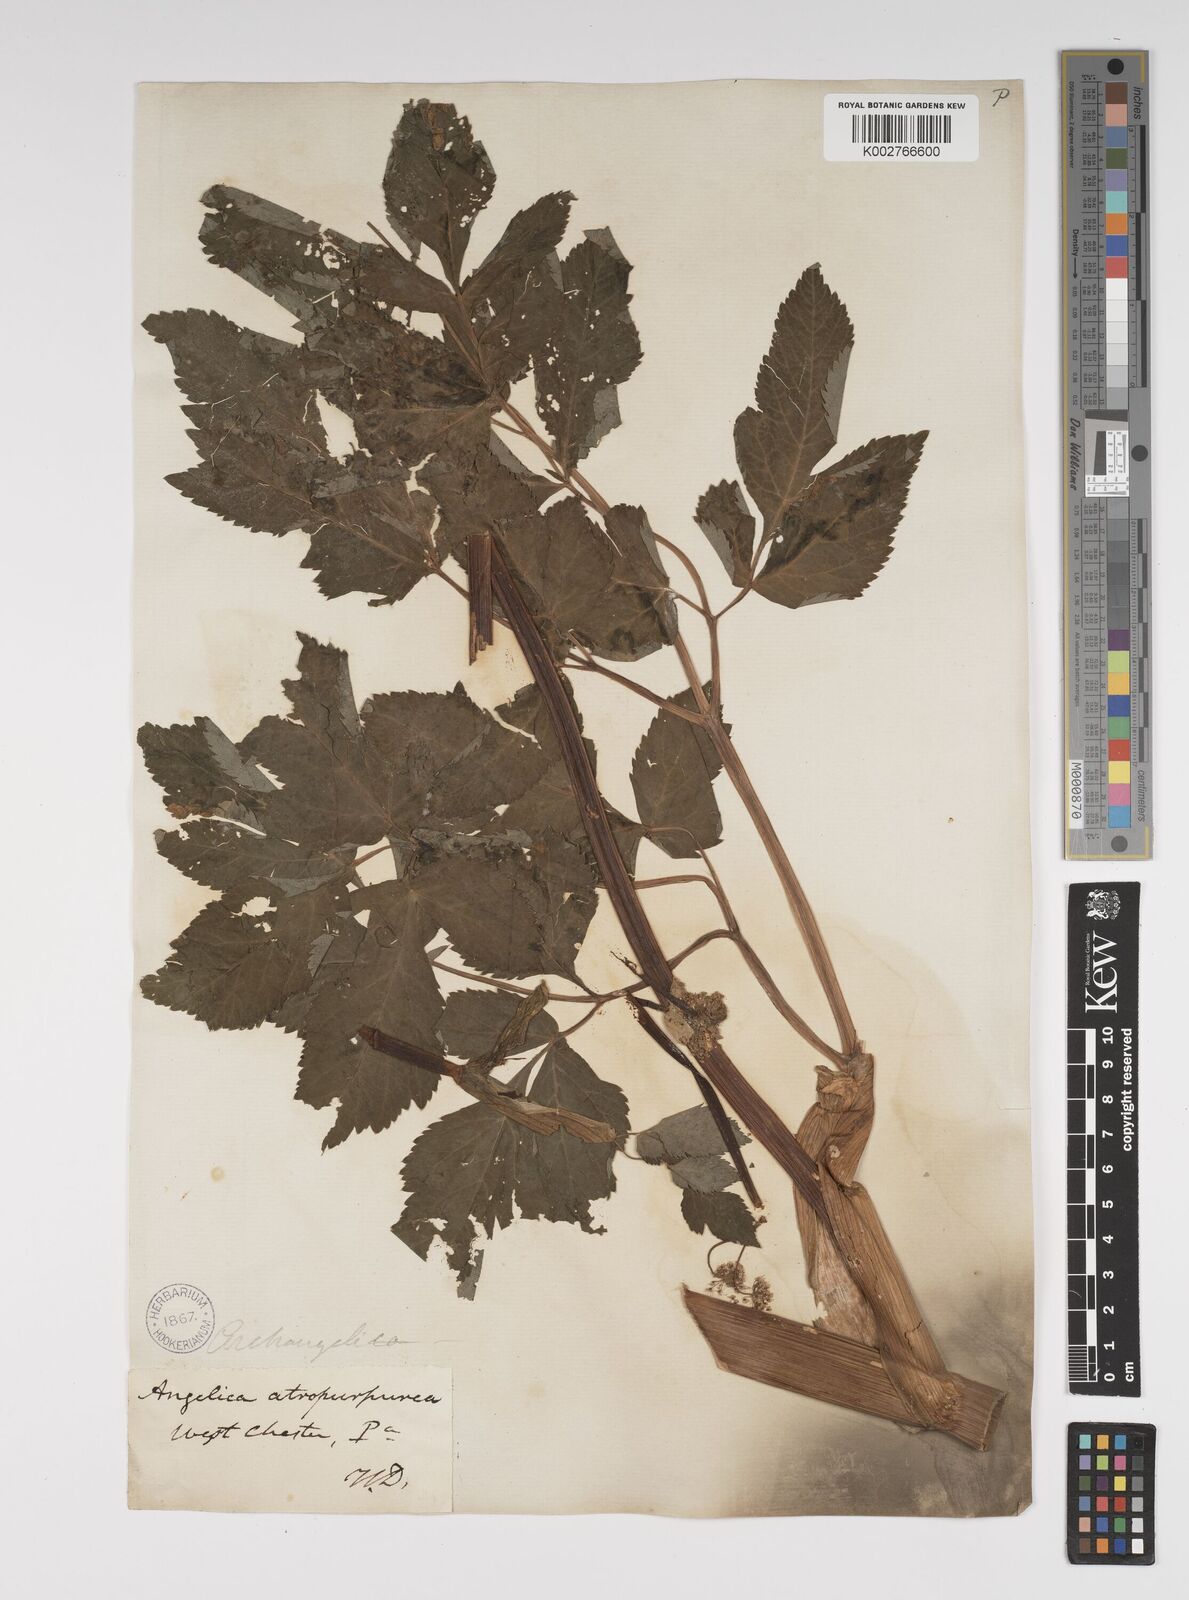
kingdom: Plantae
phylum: Tracheophyta
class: Magnoliopsida
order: Apiales
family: Apiaceae
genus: Angelica
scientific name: Angelica atropurpurea
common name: Great angelica
